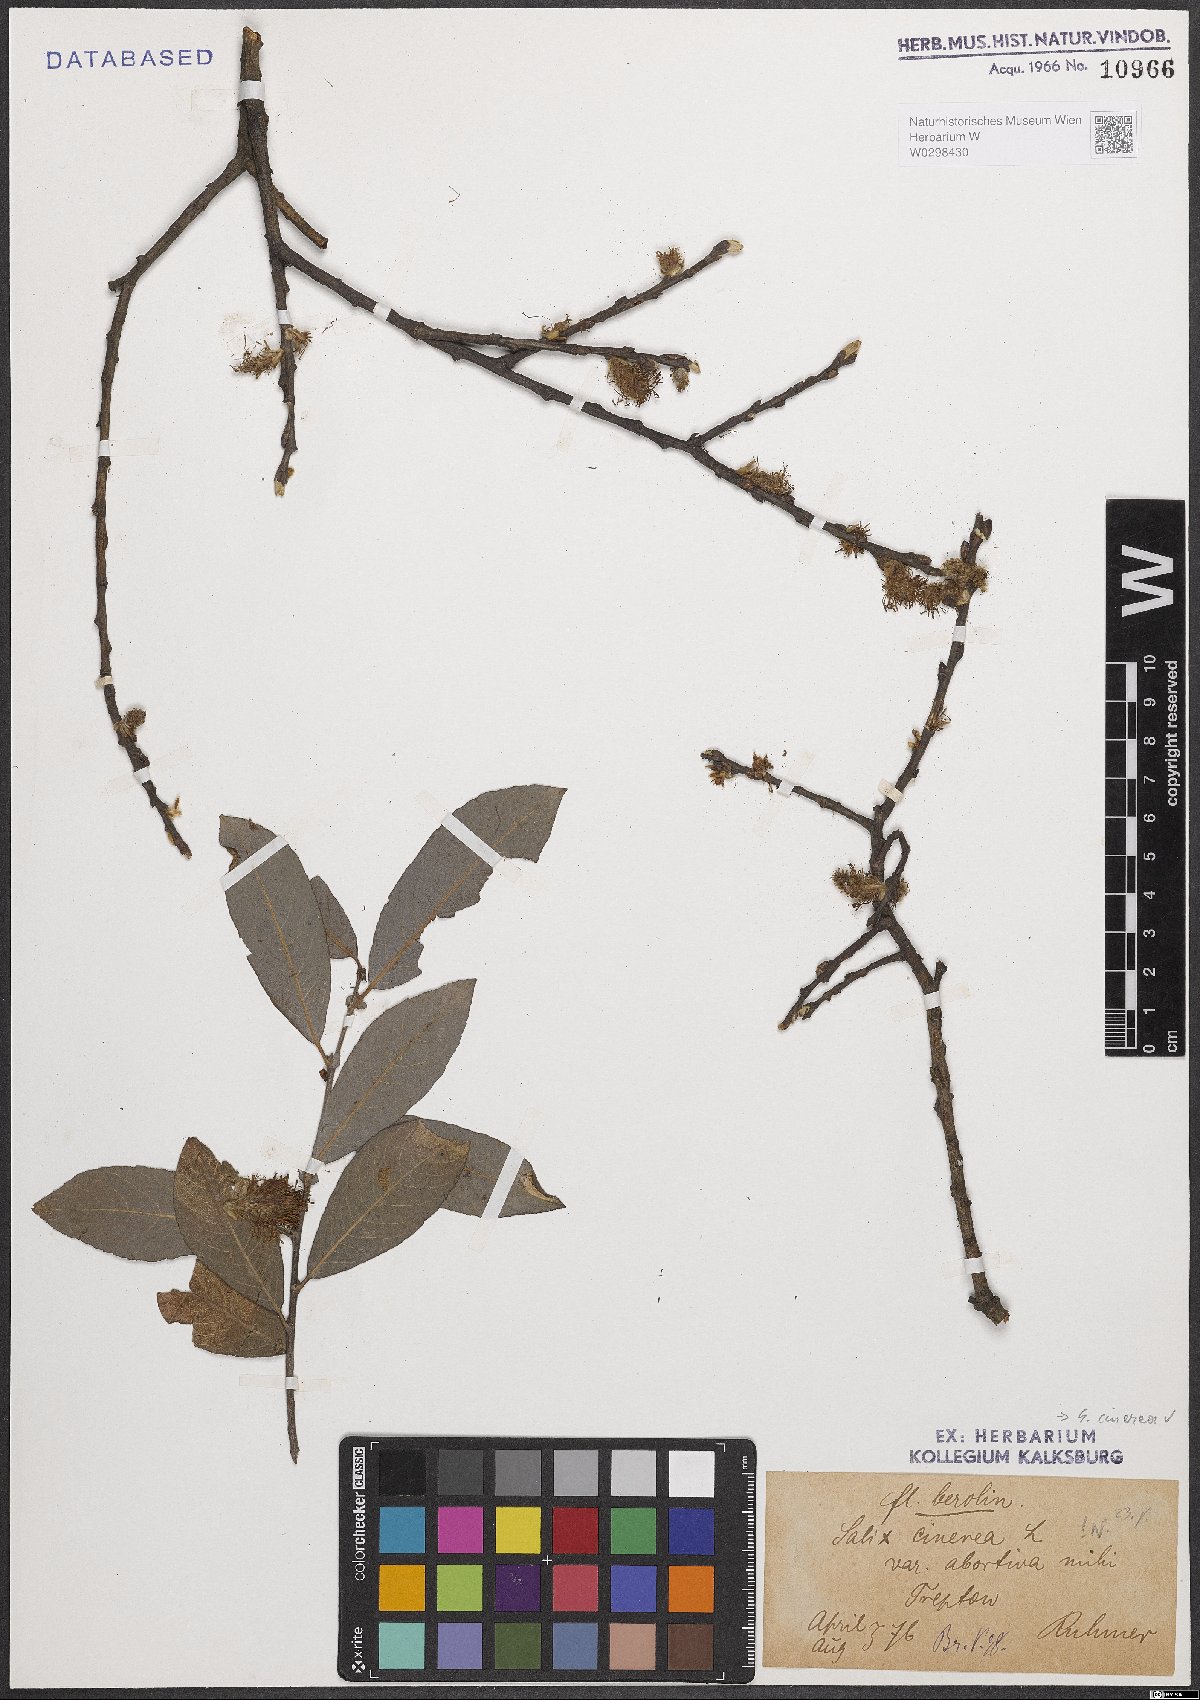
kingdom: Plantae
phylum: Tracheophyta
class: Magnoliopsida
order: Malpighiales
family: Salicaceae
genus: Salix
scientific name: Salix cinerea
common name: Common sallow
